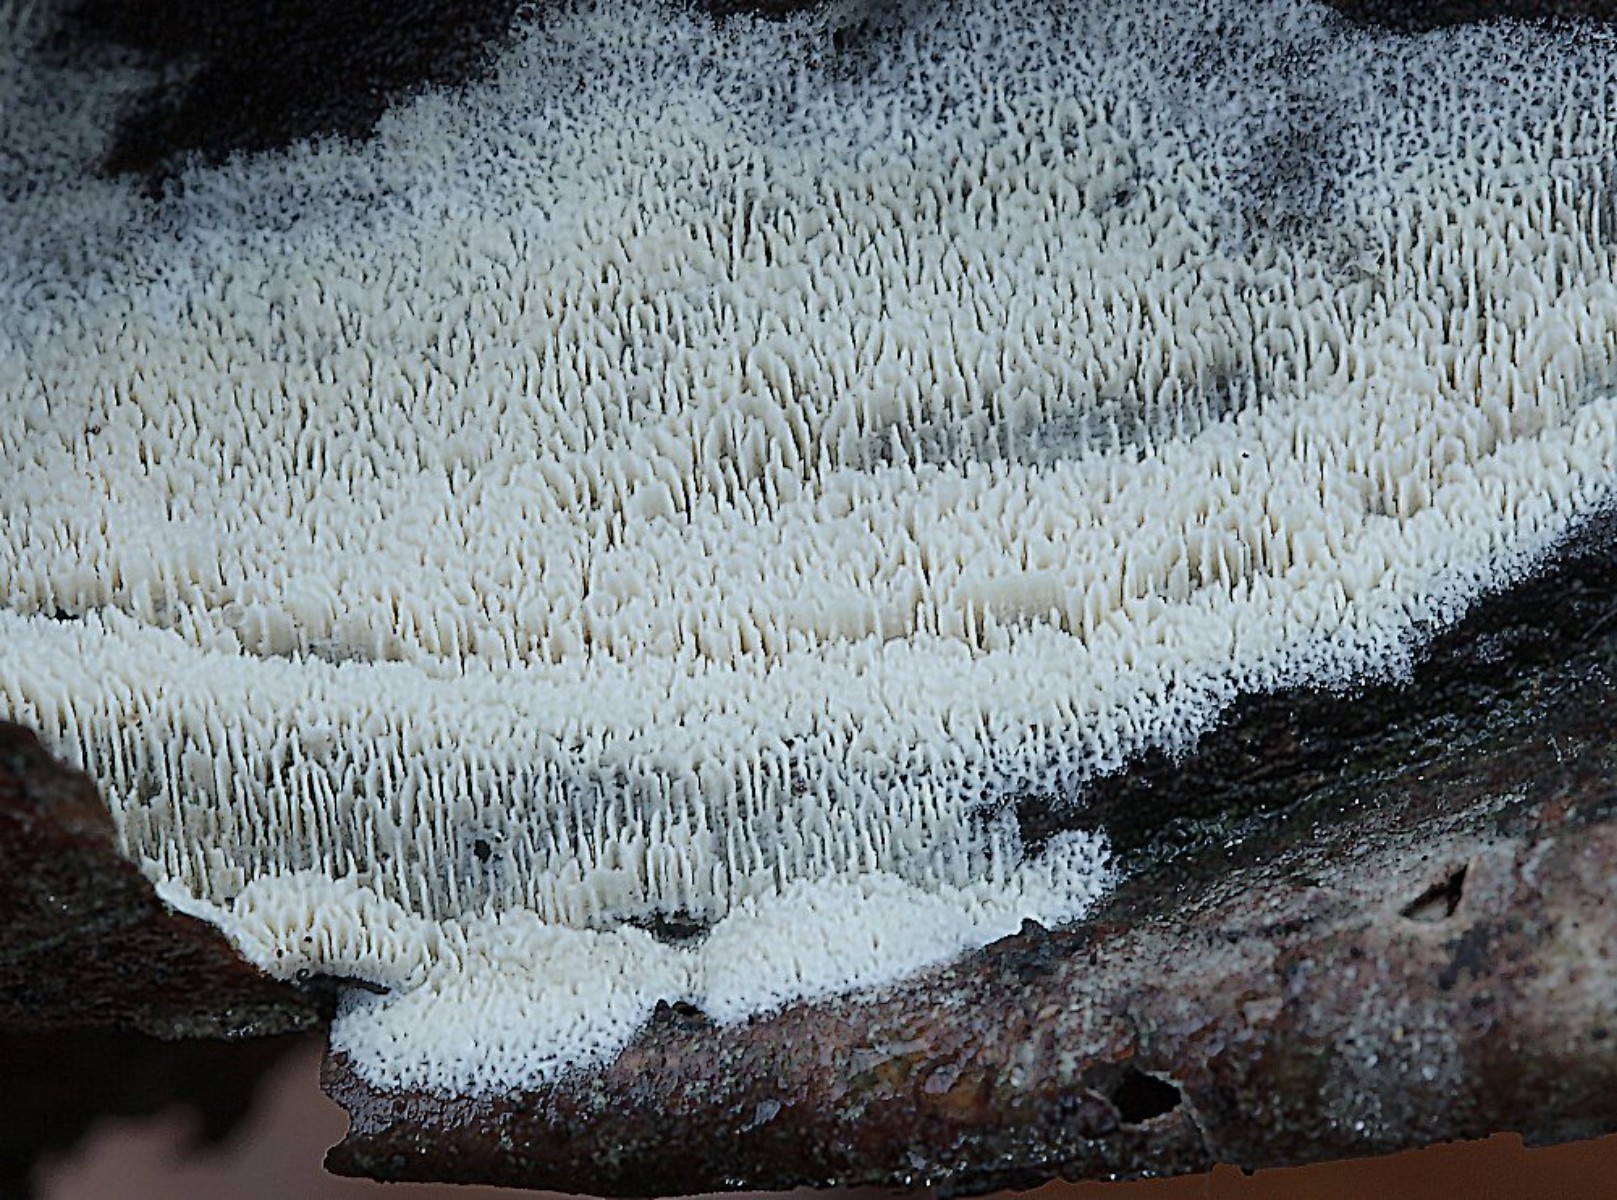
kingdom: Fungi
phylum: Basidiomycota
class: Agaricomycetes
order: Hymenochaetales
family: Schizoporaceae
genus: Xylodon
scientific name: Xylodon subtropicus
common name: labyrint-tandsvamp
